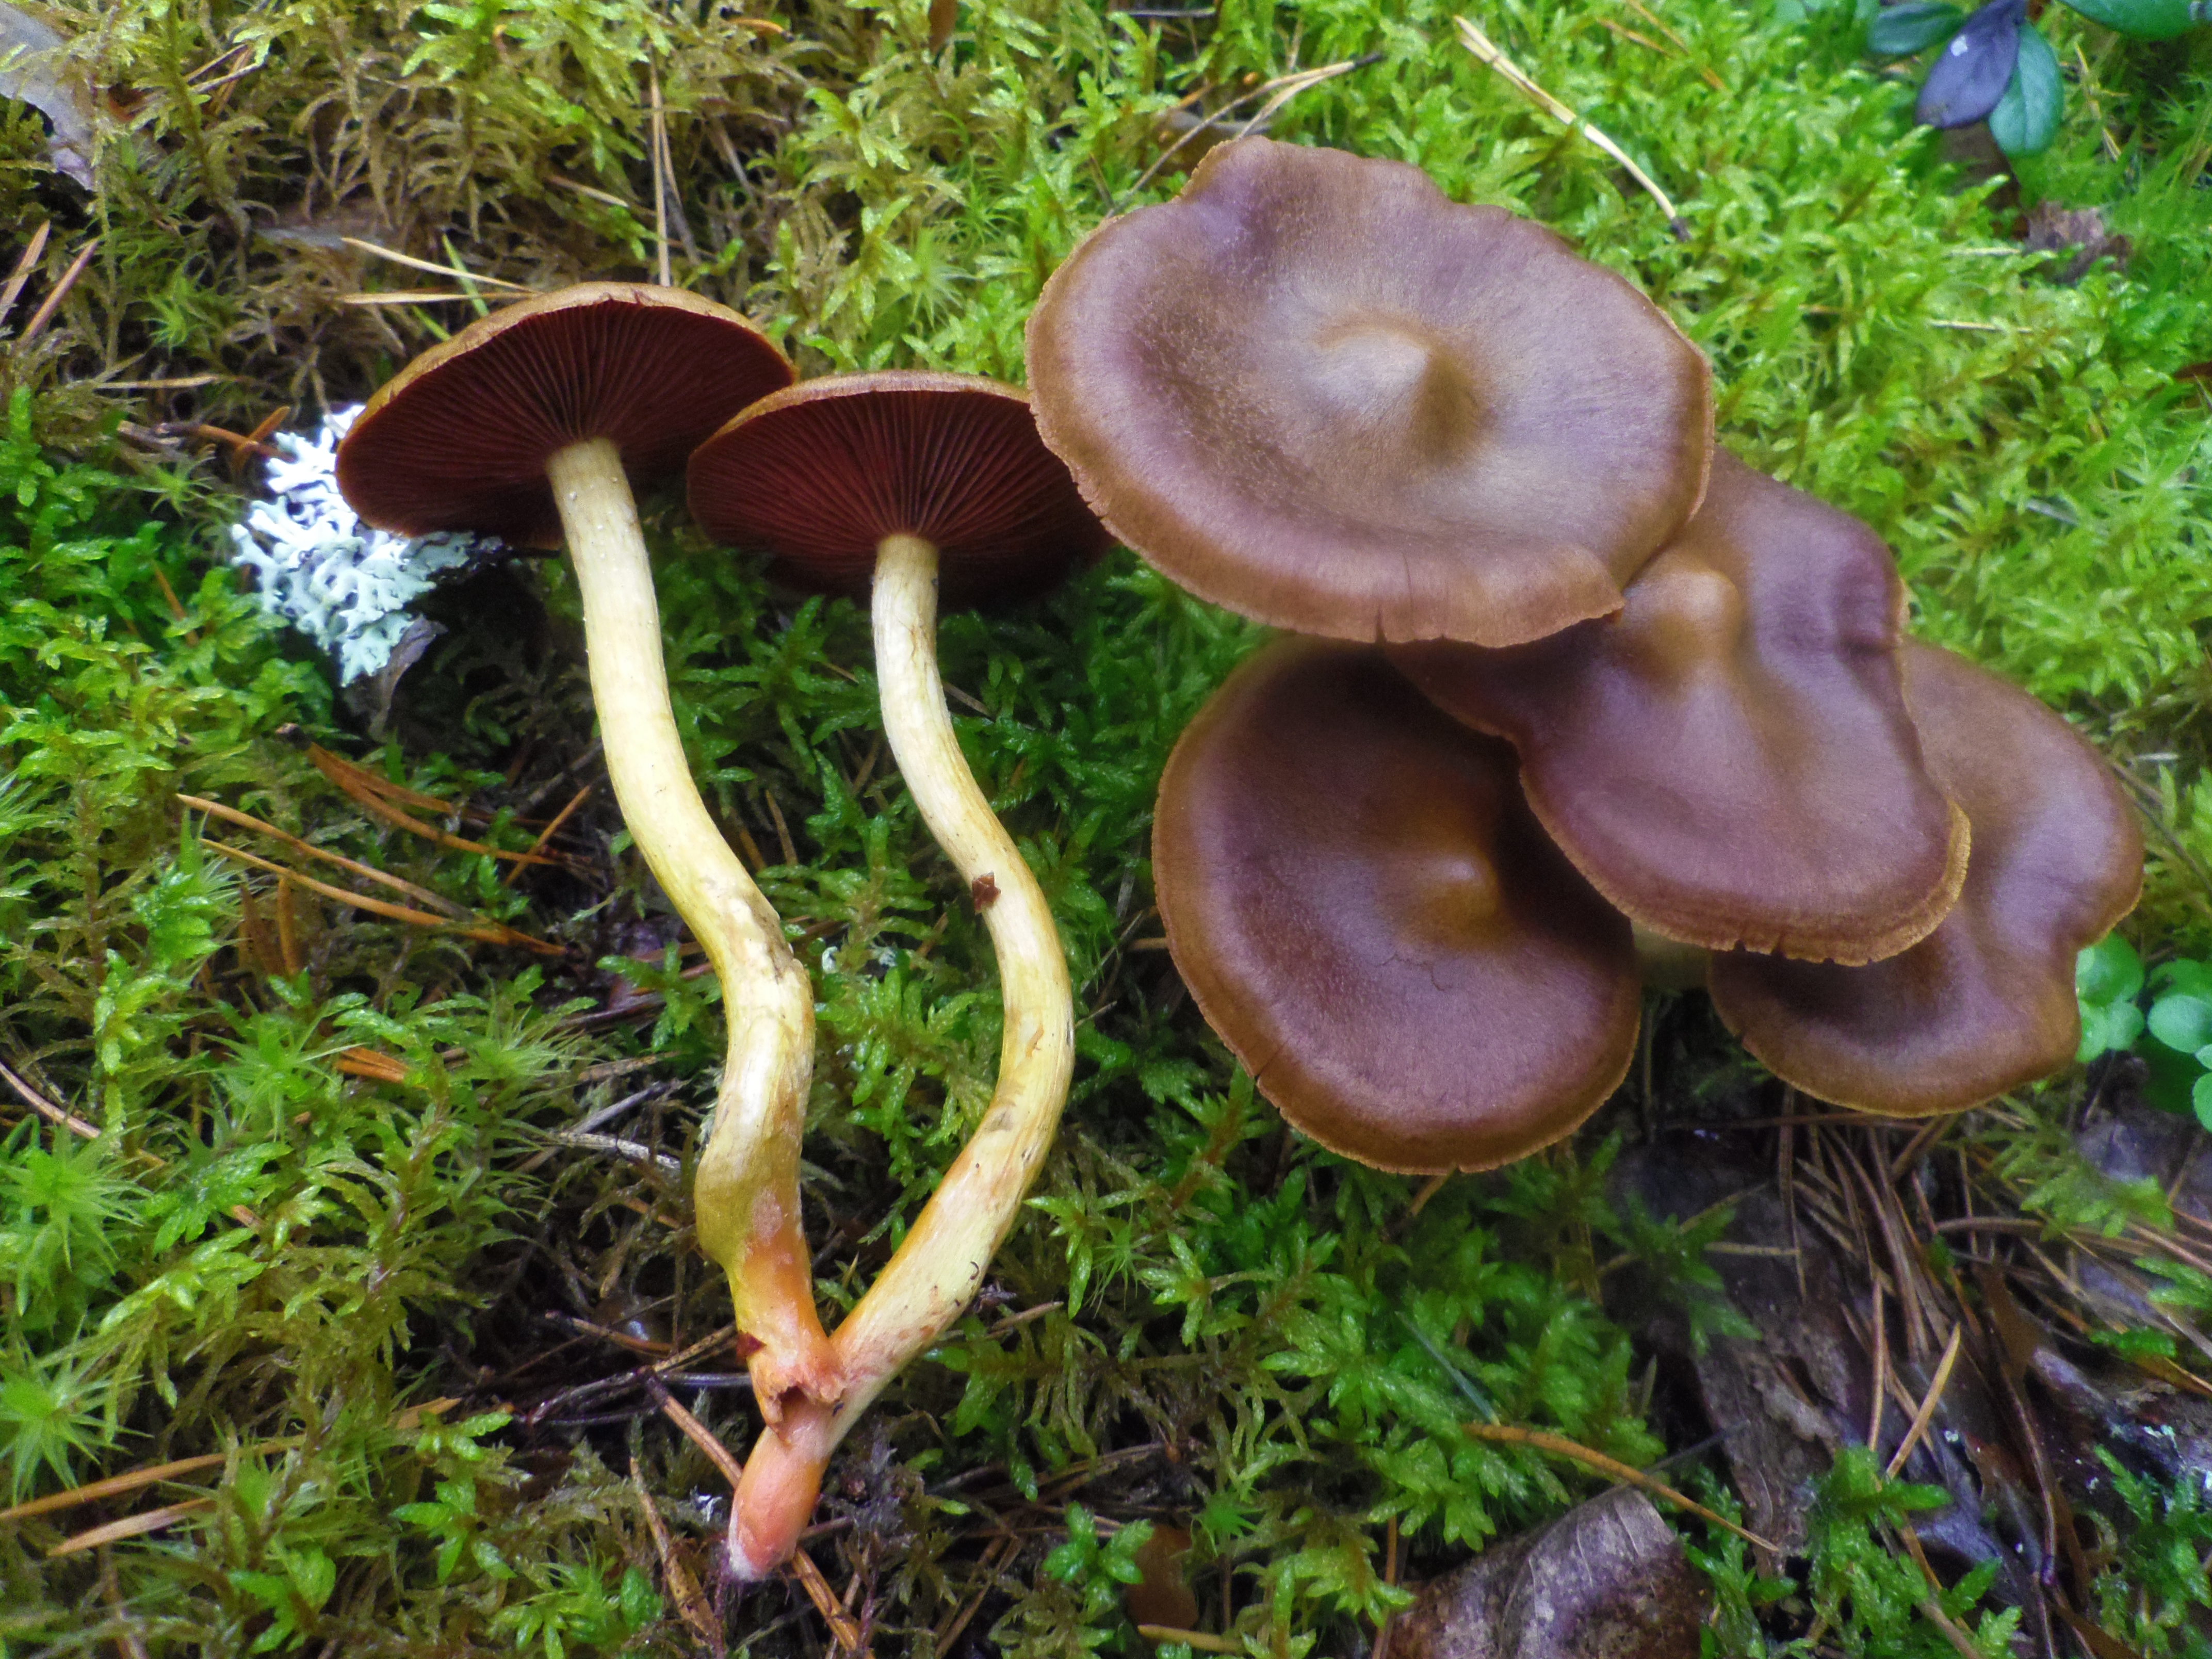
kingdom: Fungi
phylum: Basidiomycota
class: Agaricomycetes
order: Agaricales
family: Cortinariaceae
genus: Cortinarius
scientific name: Cortinarius semisanguineus
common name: Surprise webcap
